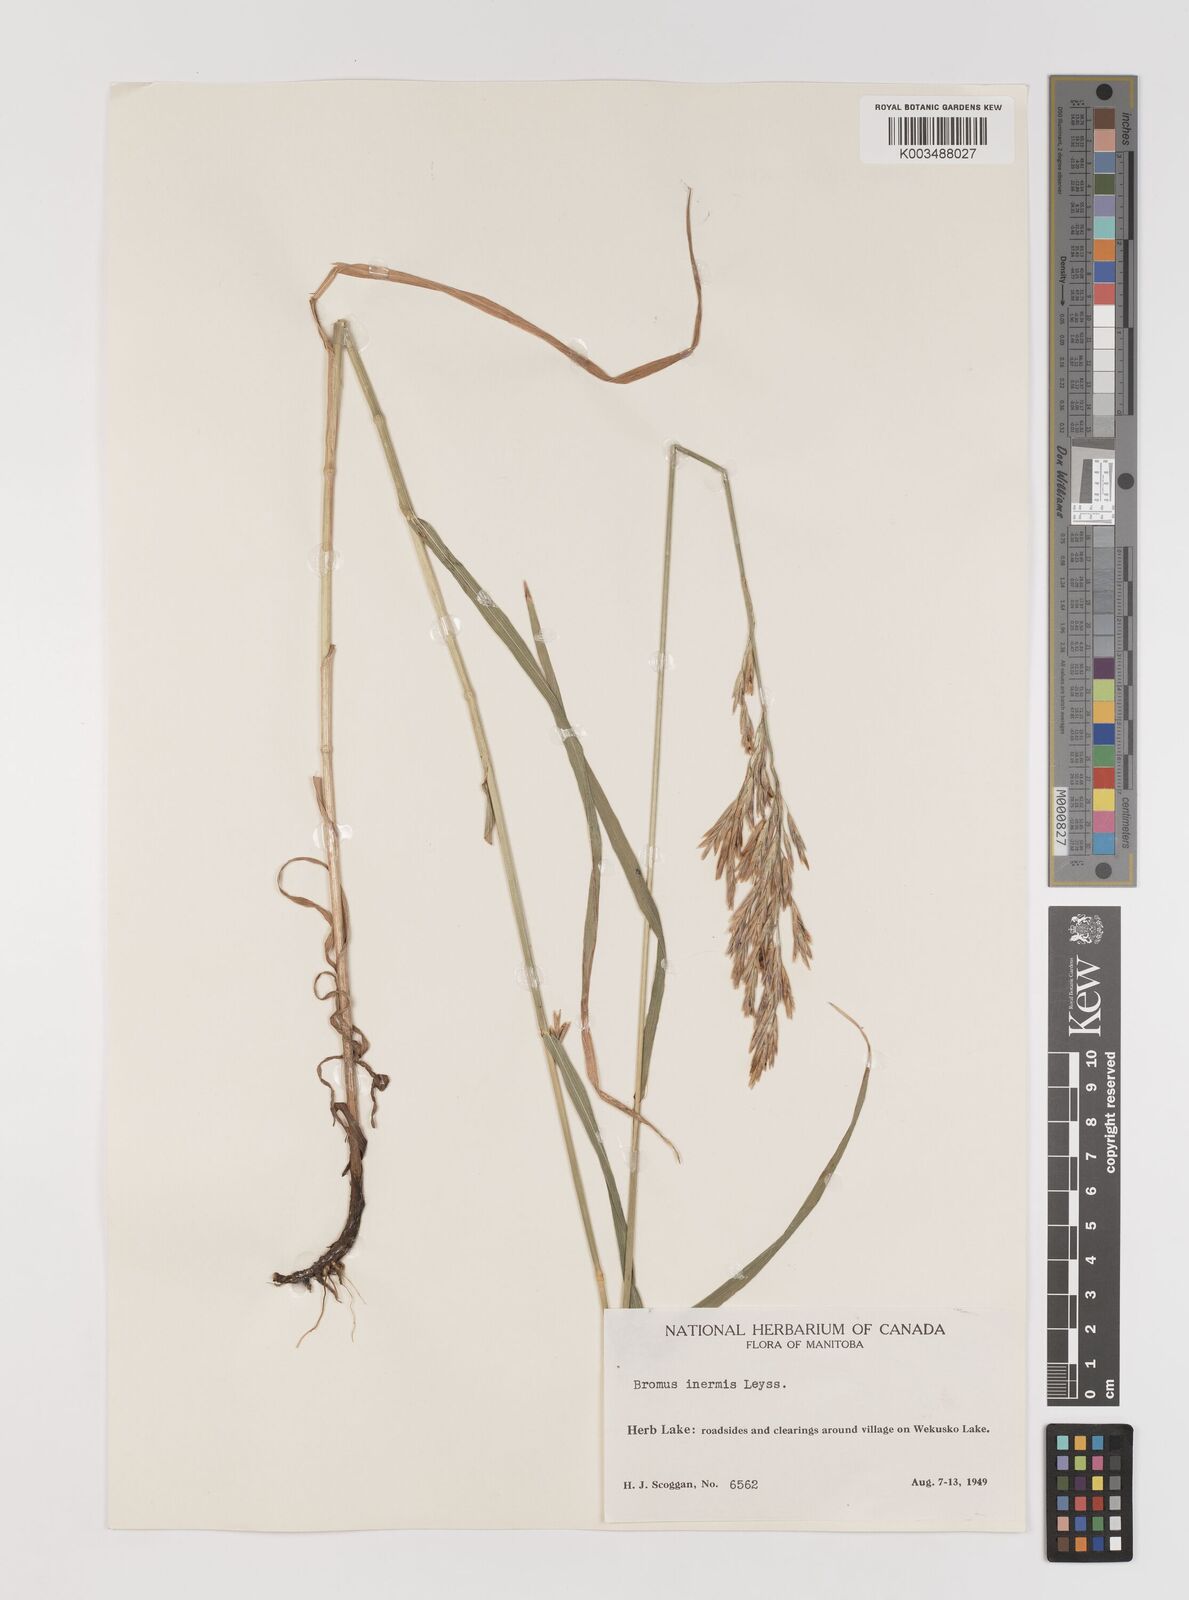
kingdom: Plantae
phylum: Tracheophyta
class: Liliopsida
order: Poales
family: Poaceae
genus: Bromus
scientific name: Bromus inermis
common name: Smooth brome
